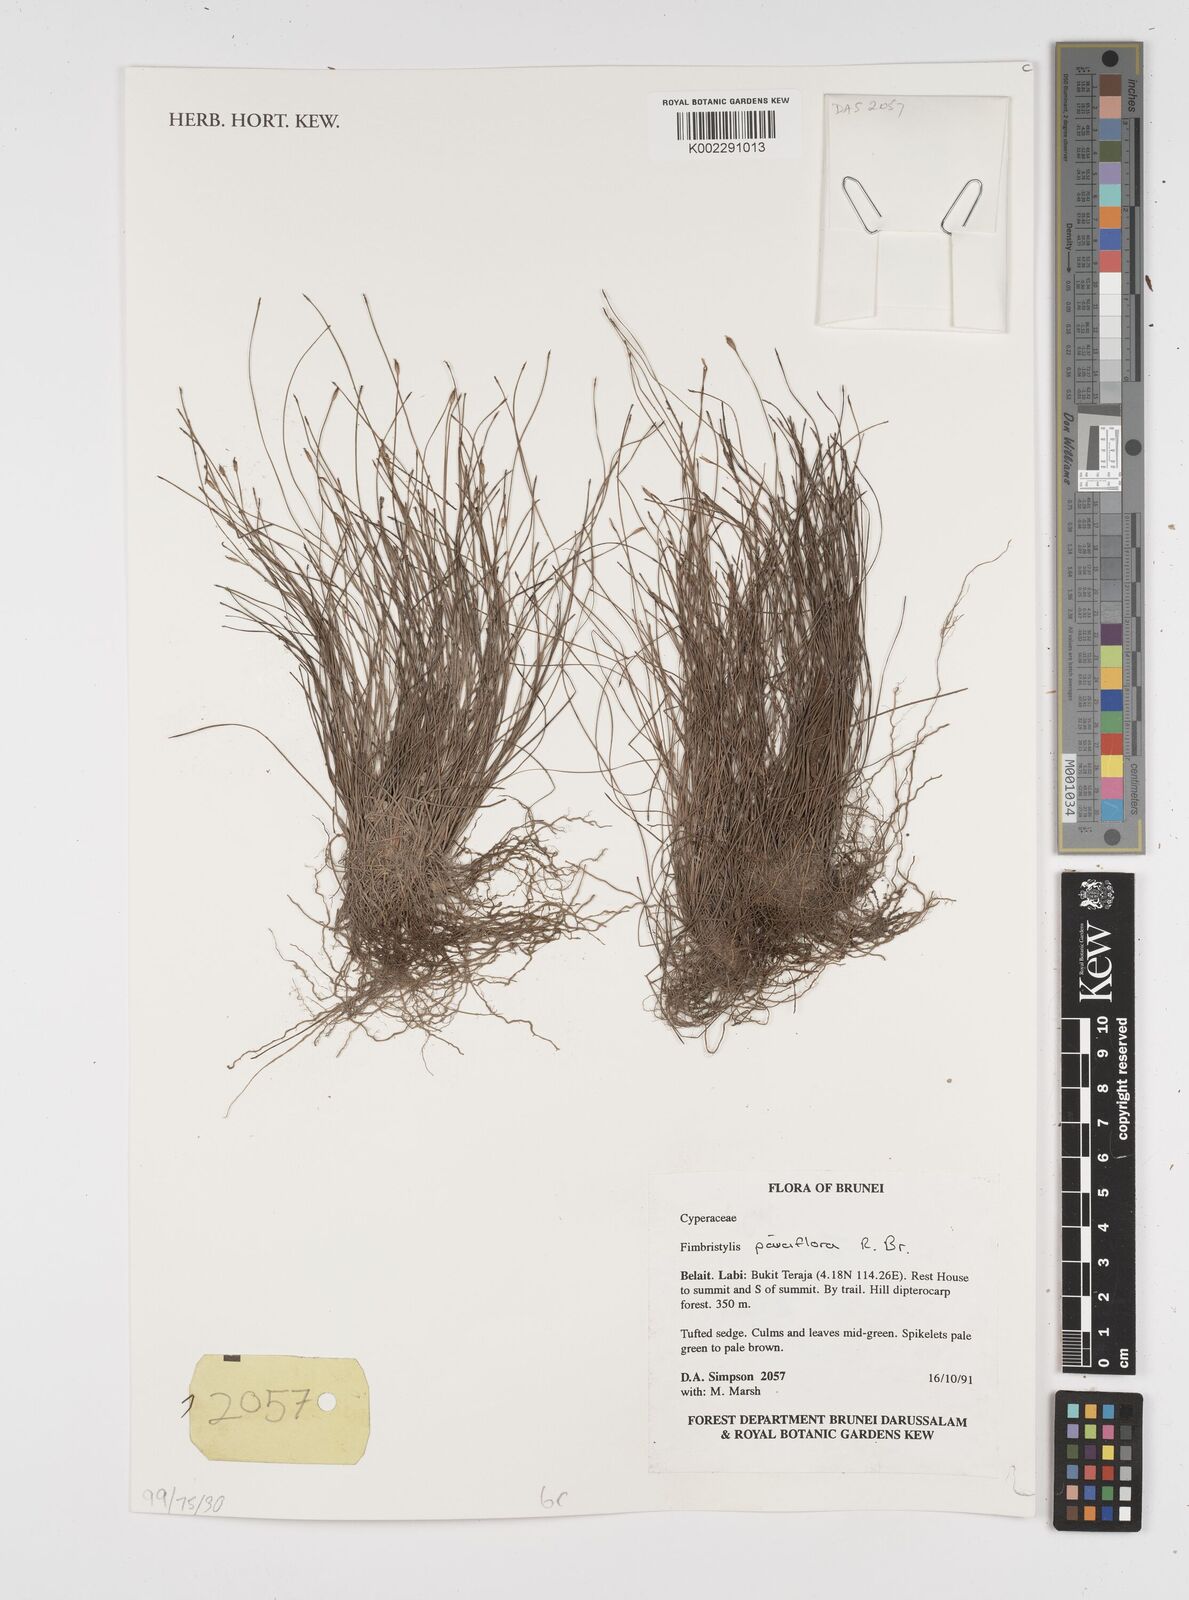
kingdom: Plantae
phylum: Tracheophyta
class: Liliopsida
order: Poales
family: Cyperaceae
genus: Fimbristylis
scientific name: Fimbristylis pauciflora
